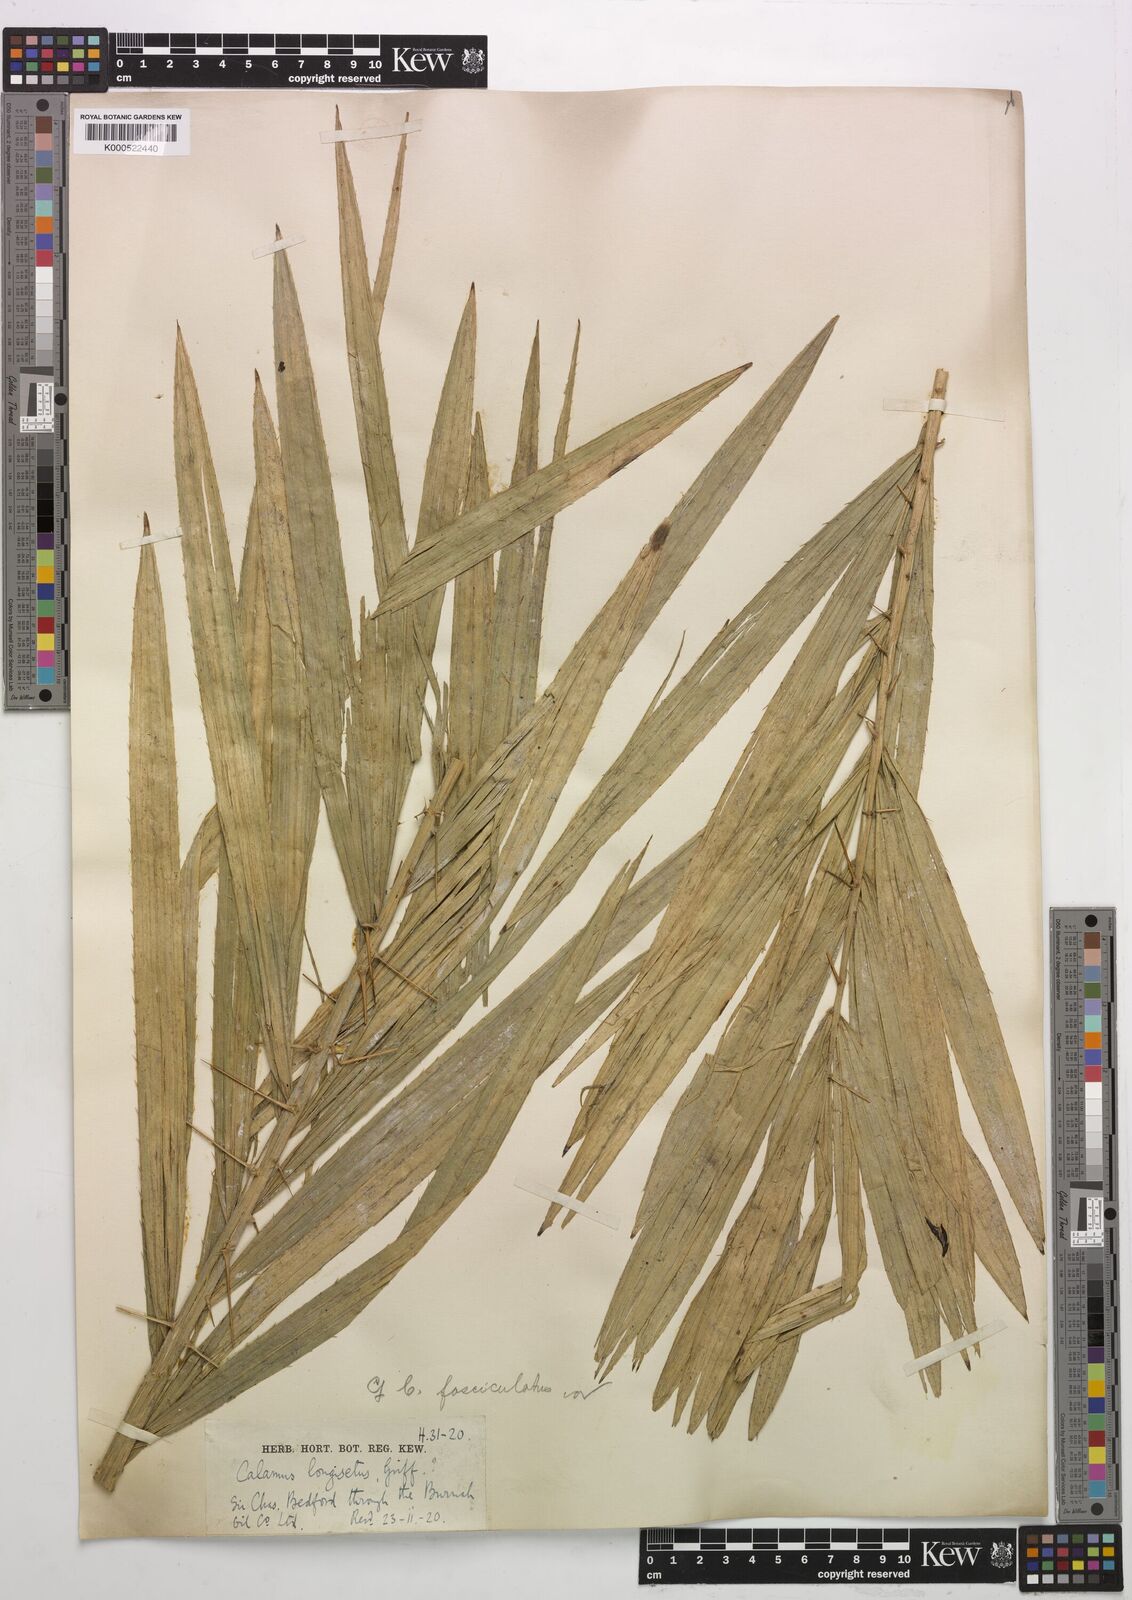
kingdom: Plantae
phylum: Tracheophyta
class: Liliopsida
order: Arecales
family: Arecaceae
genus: Calamus
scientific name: Calamus longisetus
